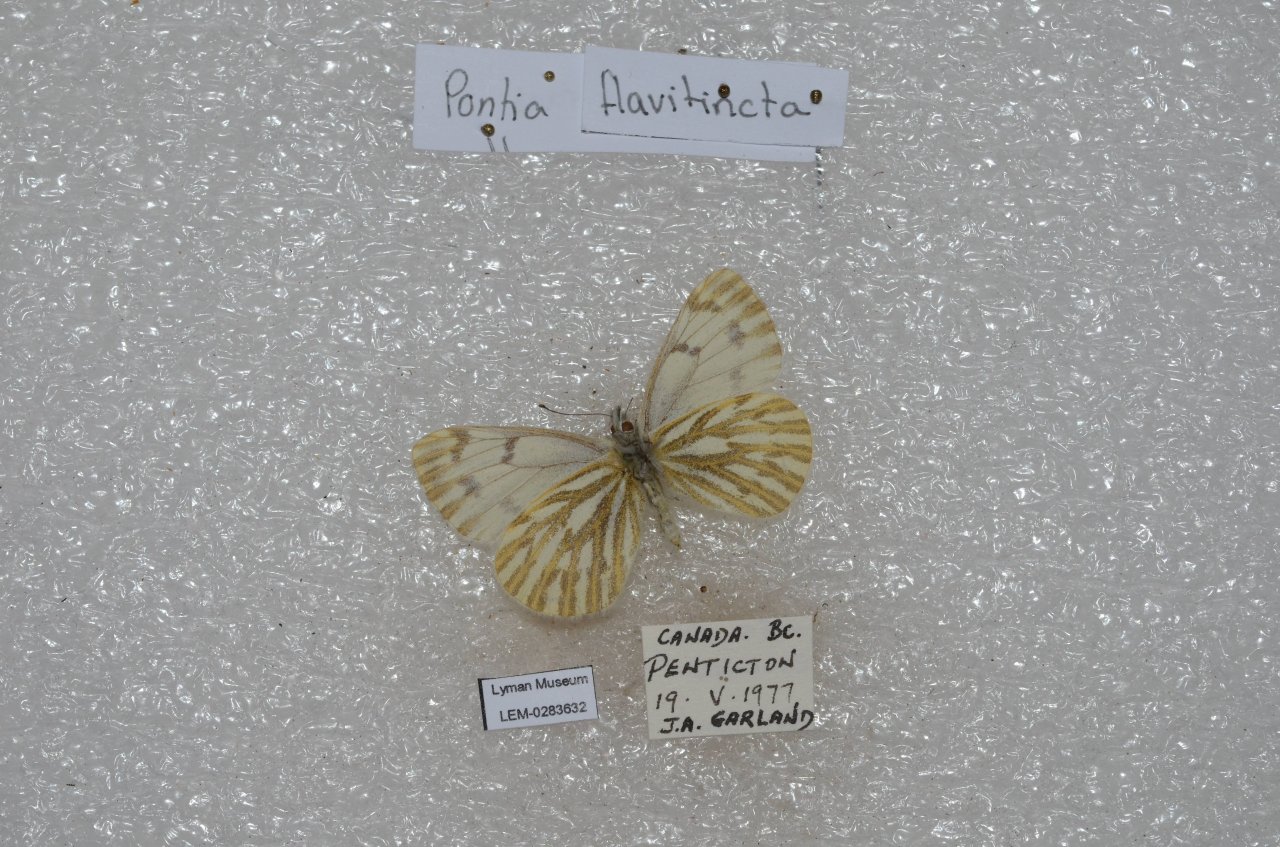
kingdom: Animalia
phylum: Arthropoda
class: Insecta
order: Lepidoptera
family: Pieridae
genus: Pontia
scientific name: Pontia sisymbrii
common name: Spring White
